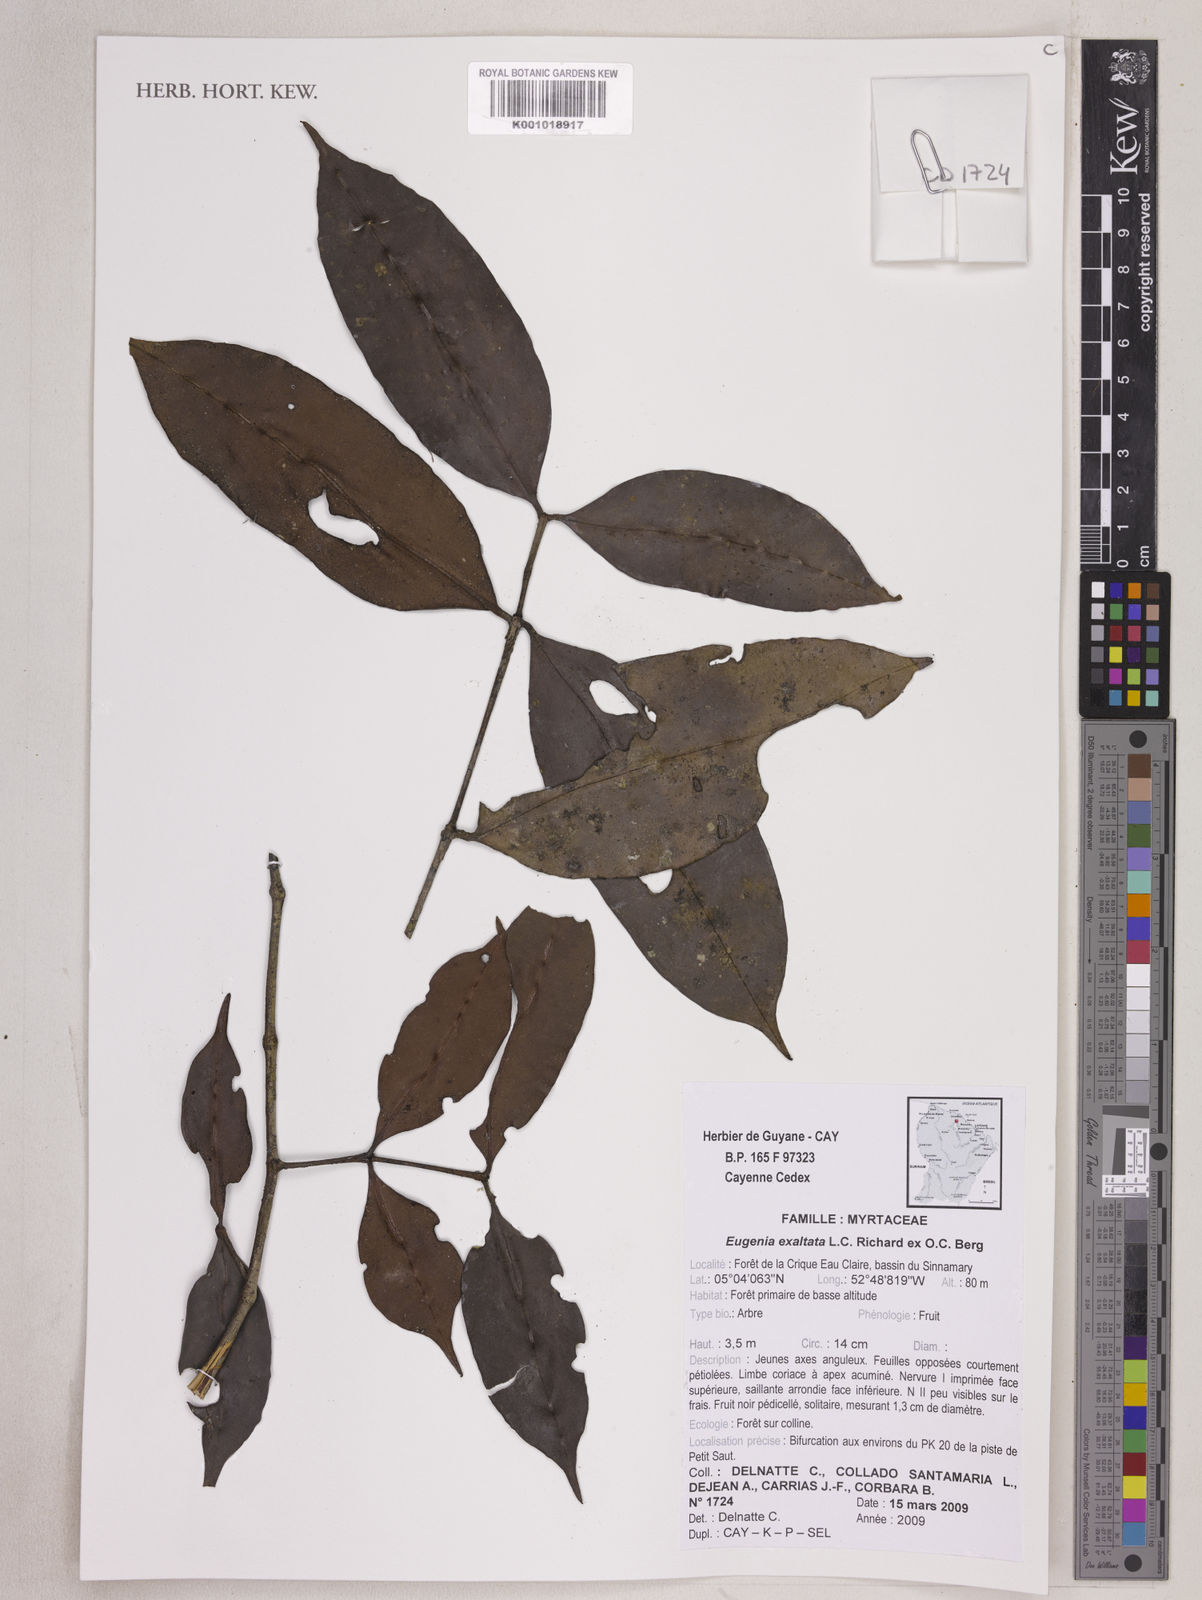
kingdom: Plantae
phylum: Tracheophyta
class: Magnoliopsida
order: Myrtales
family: Myrtaceae
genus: Eugenia
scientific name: Eugenia exaltata
